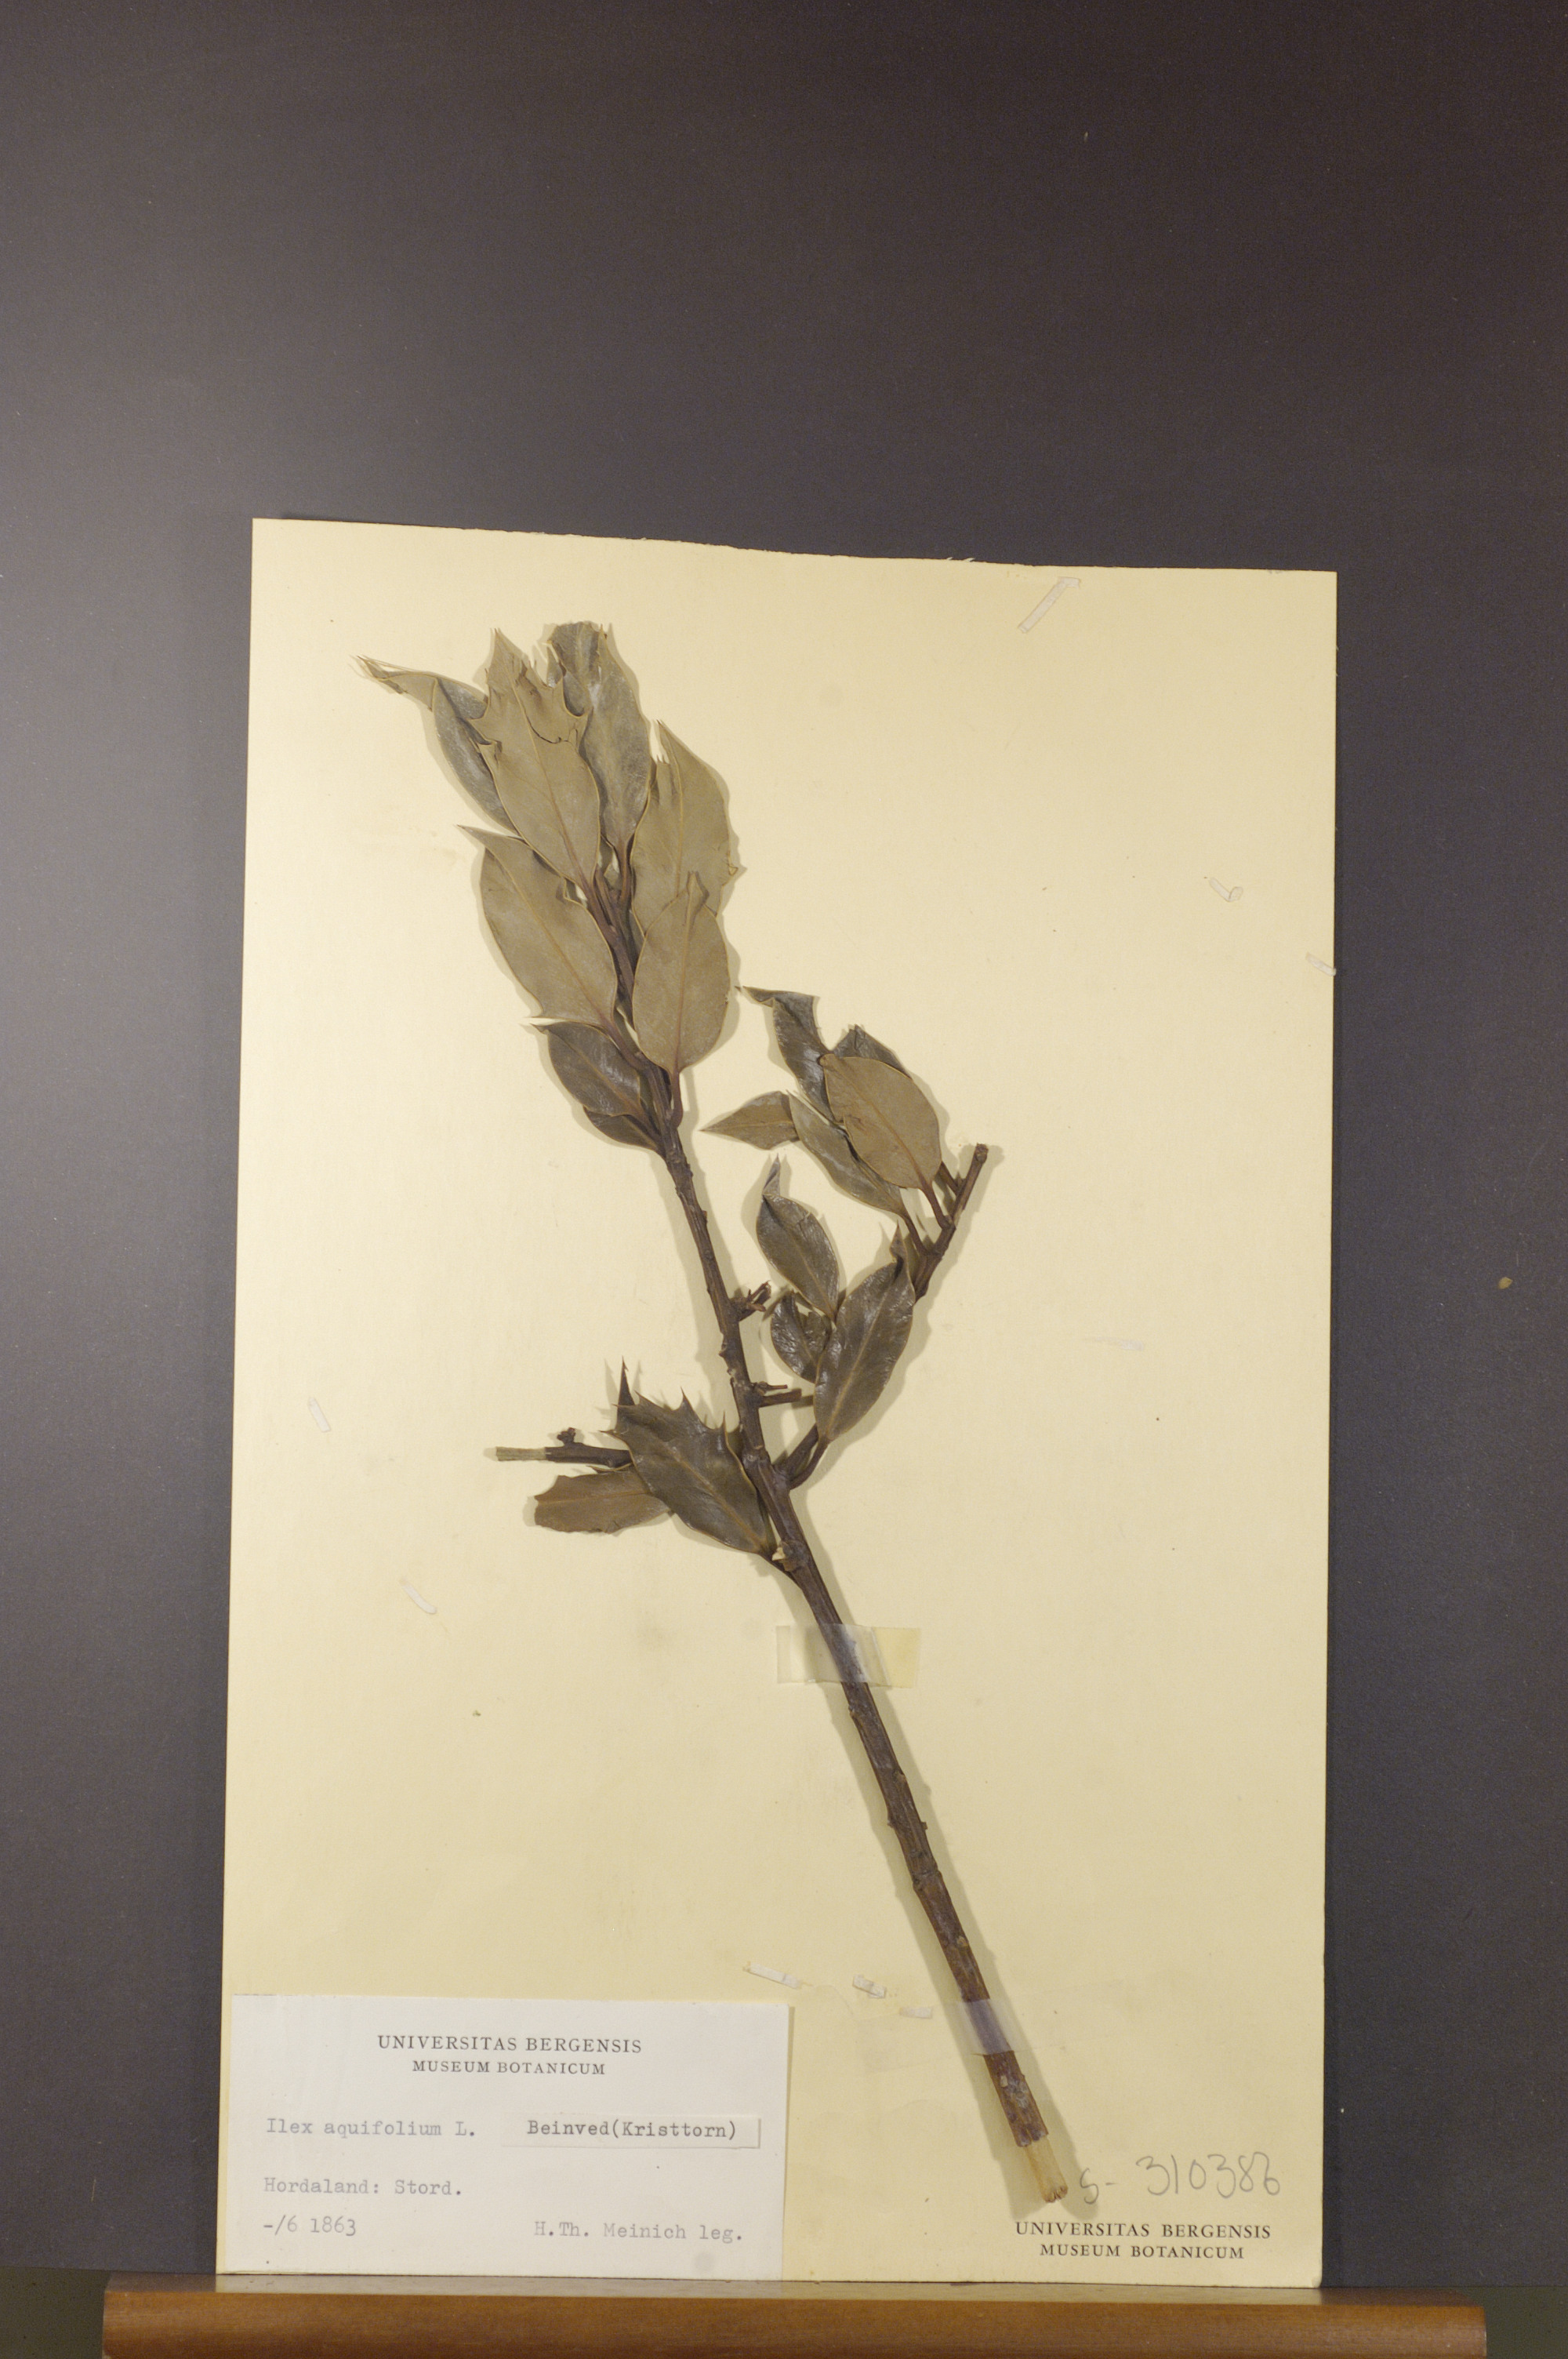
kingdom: Plantae
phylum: Tracheophyta
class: Magnoliopsida
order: Aquifoliales
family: Aquifoliaceae
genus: Ilex
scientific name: Ilex aquifolium
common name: English holly
